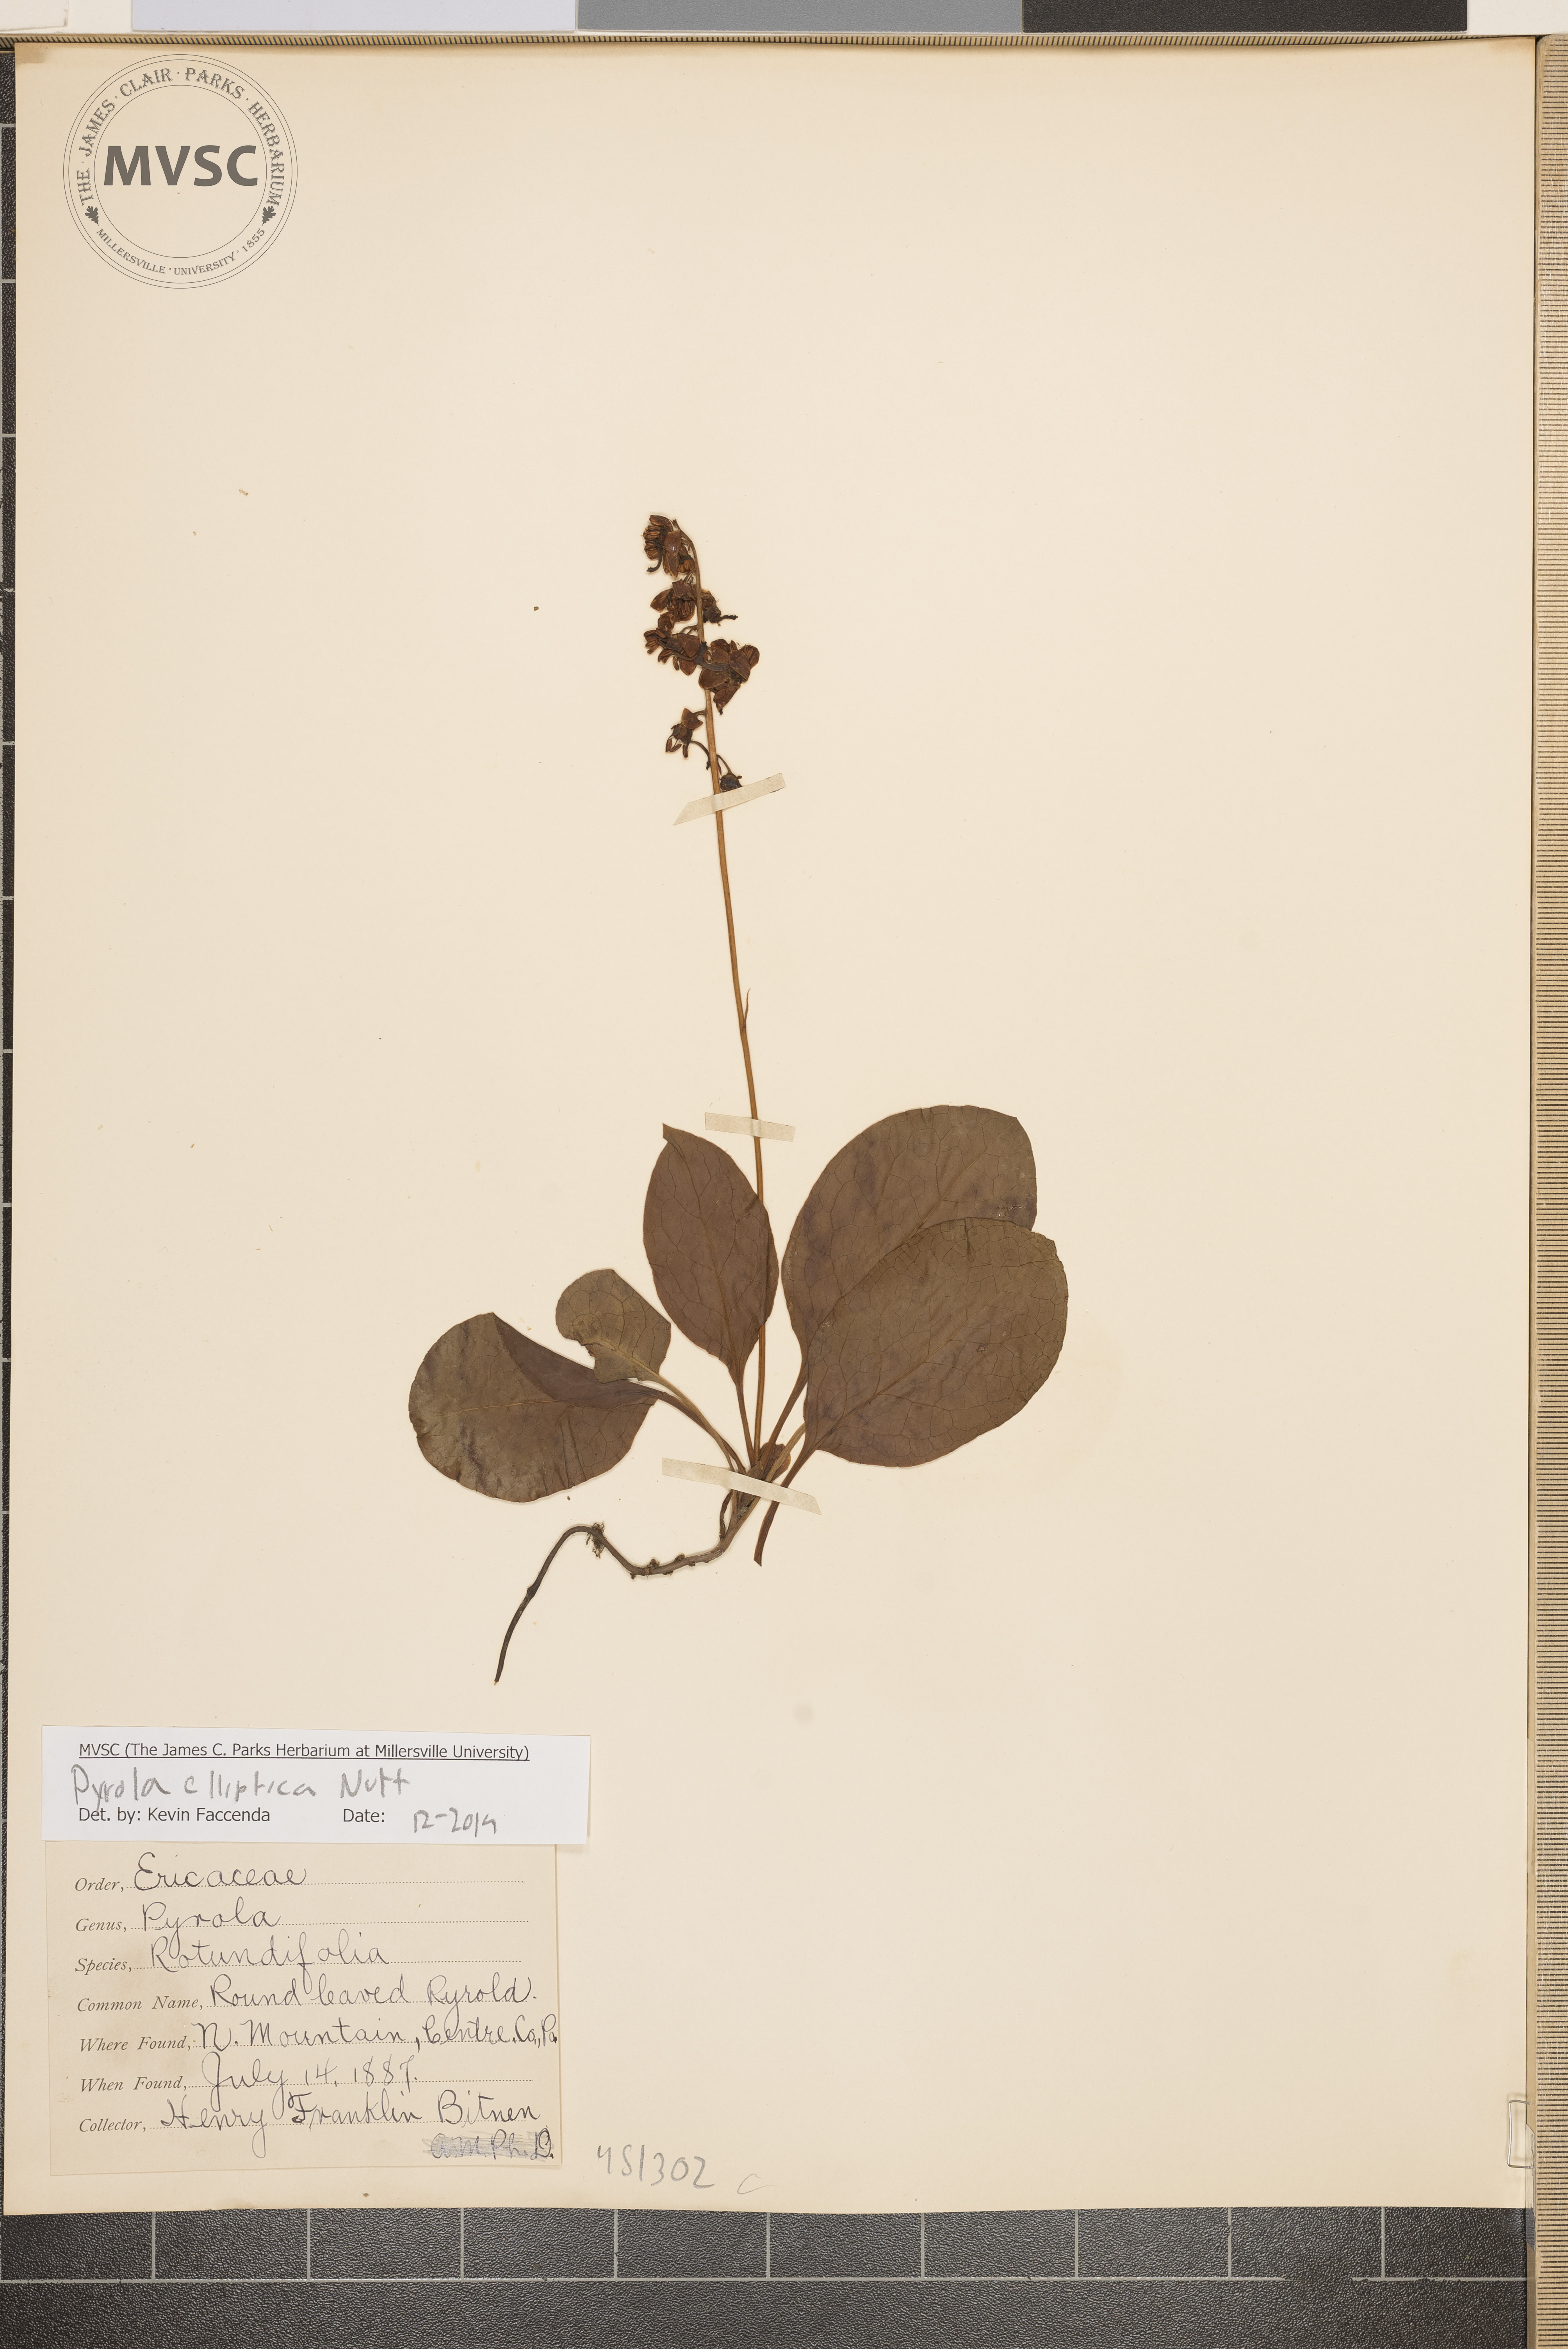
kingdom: Plantae
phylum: Tracheophyta
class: Magnoliopsida
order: Ericales
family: Ericaceae
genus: Pyrola
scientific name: Pyrola elliptica
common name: Shinleaf
